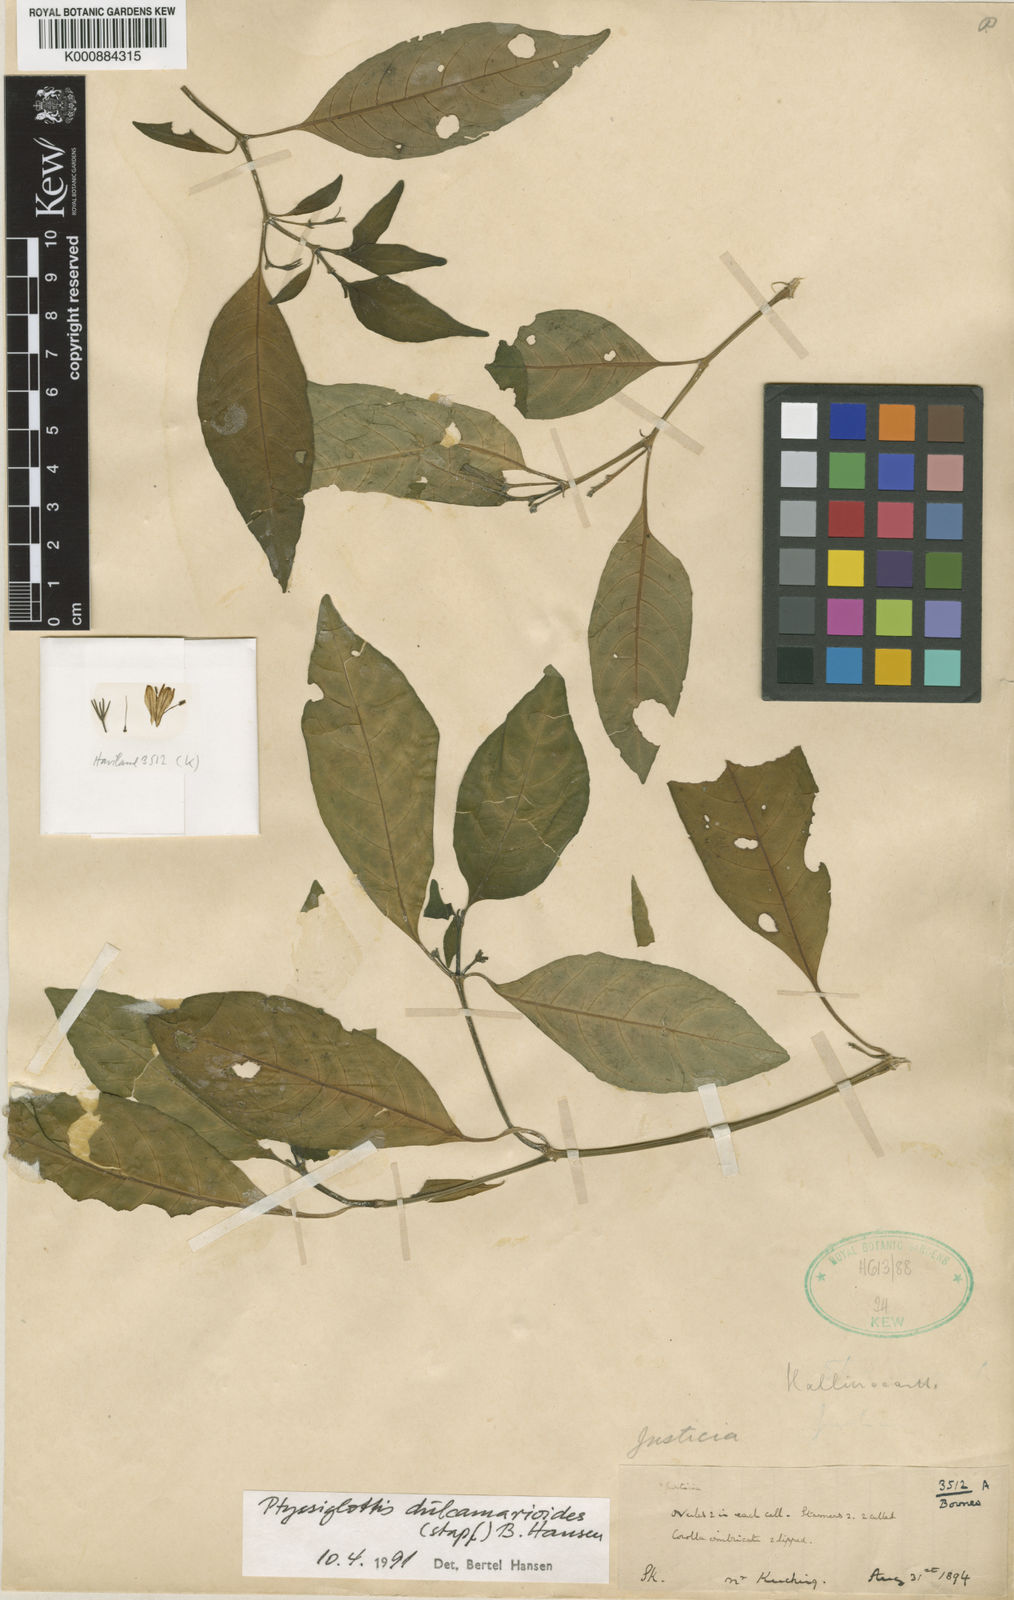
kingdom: Plantae
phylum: Tracheophyta
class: Magnoliopsida
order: Lamiales
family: Acanthaceae
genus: Ptyssiglottis
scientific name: Ptyssiglottis dulcamarioides
